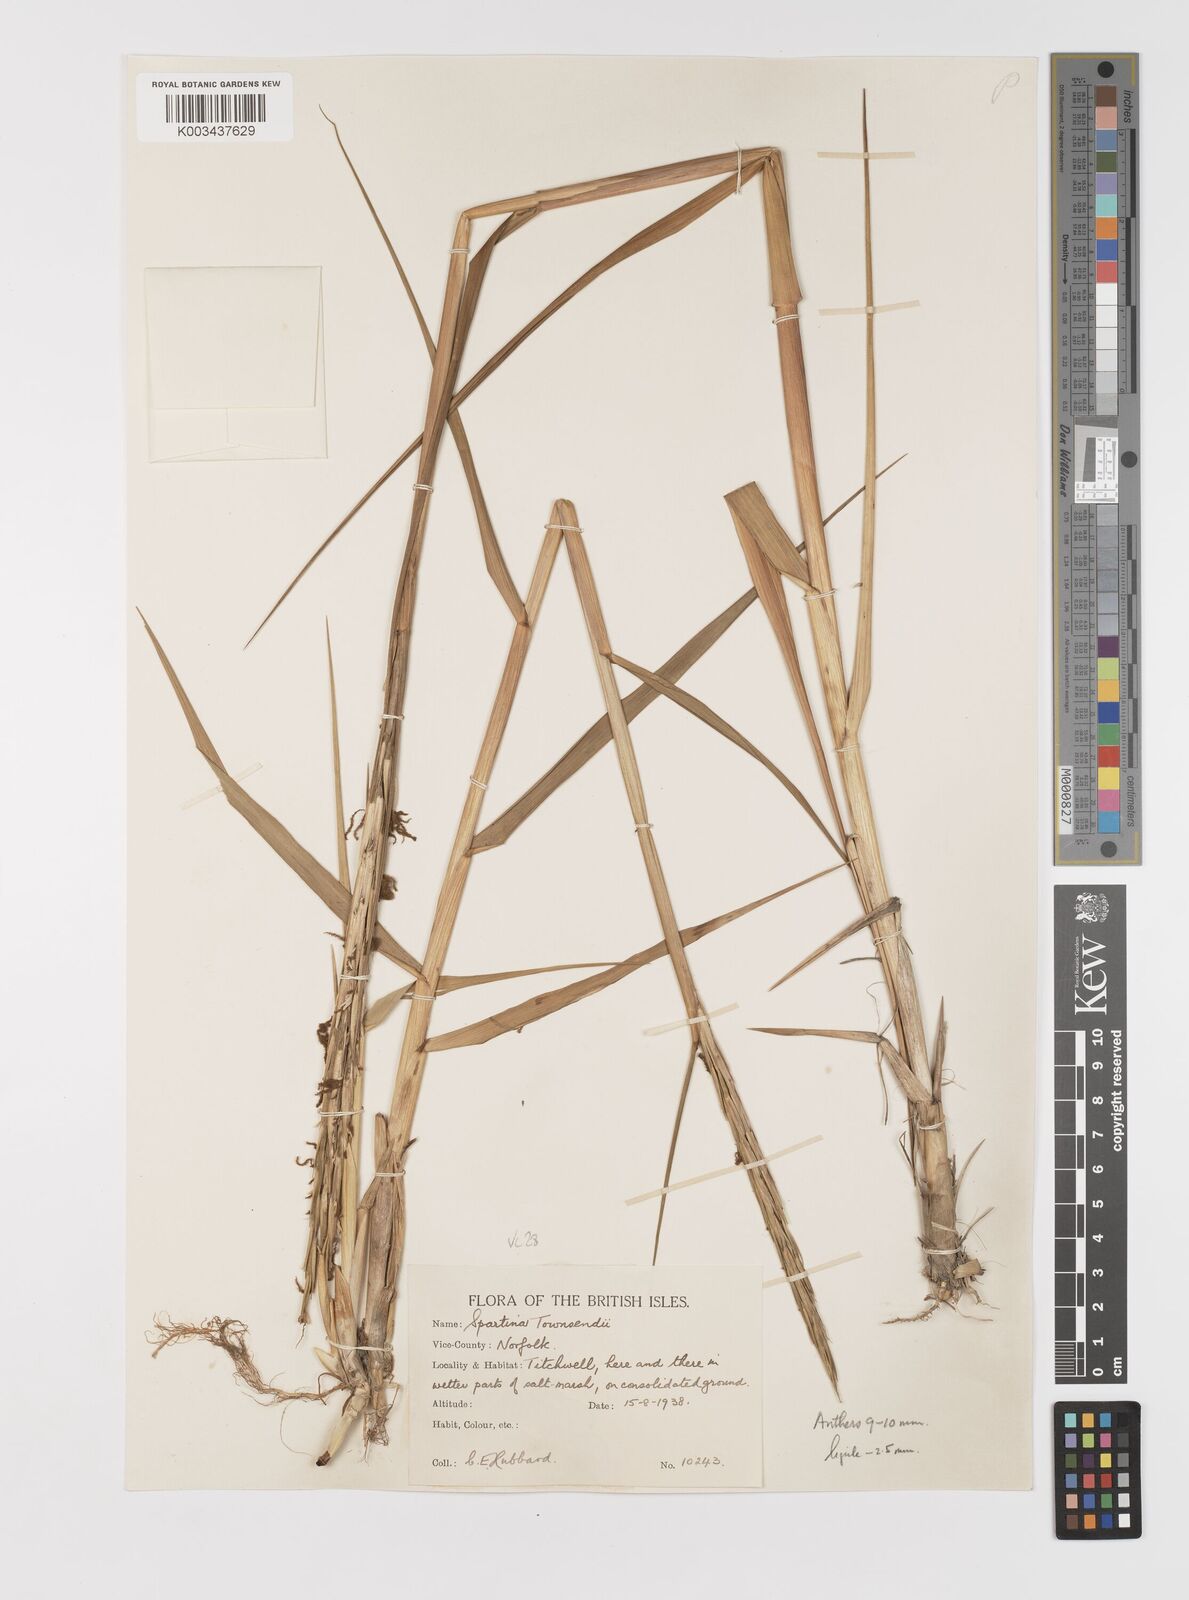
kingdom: Plantae
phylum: Tracheophyta
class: Liliopsida
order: Poales
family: Poaceae
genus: Sporobolus
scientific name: Sporobolus anglicus
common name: English cordgrass
